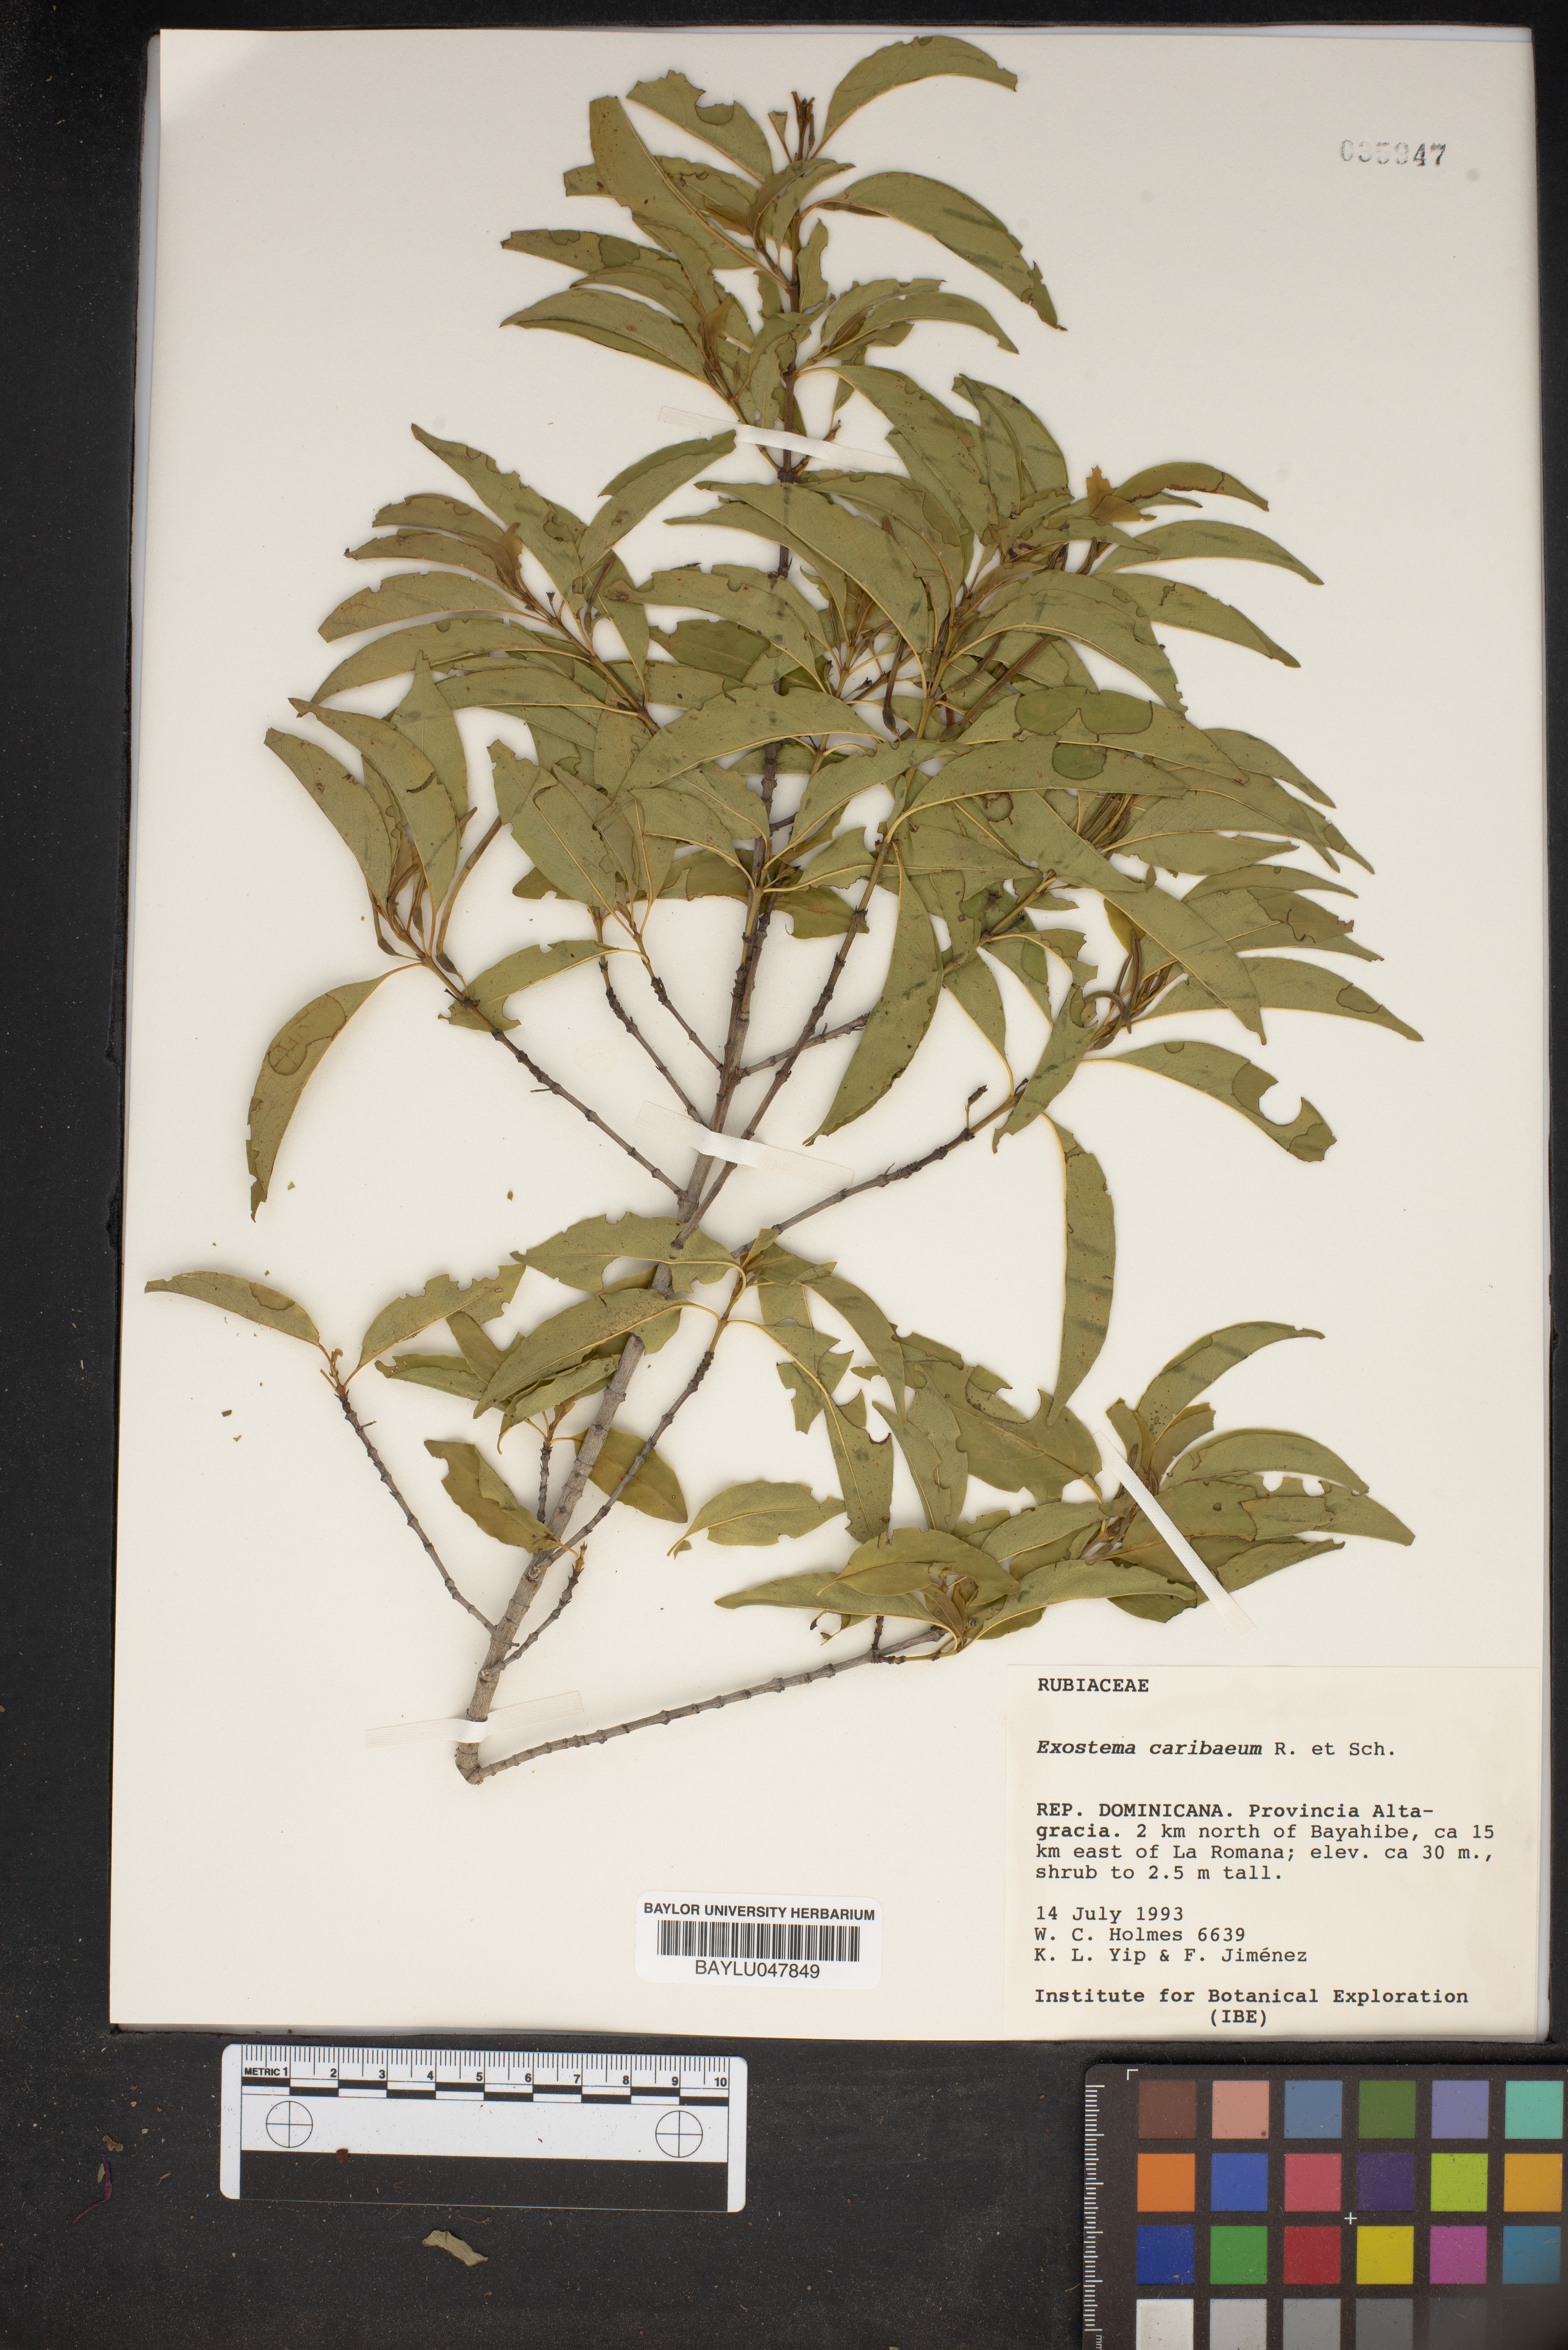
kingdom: Plantae
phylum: Tracheophyta
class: Magnoliopsida
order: Gentianales
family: Rubiaceae
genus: Exostema
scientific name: Exostema caribaeum
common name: Princewood
